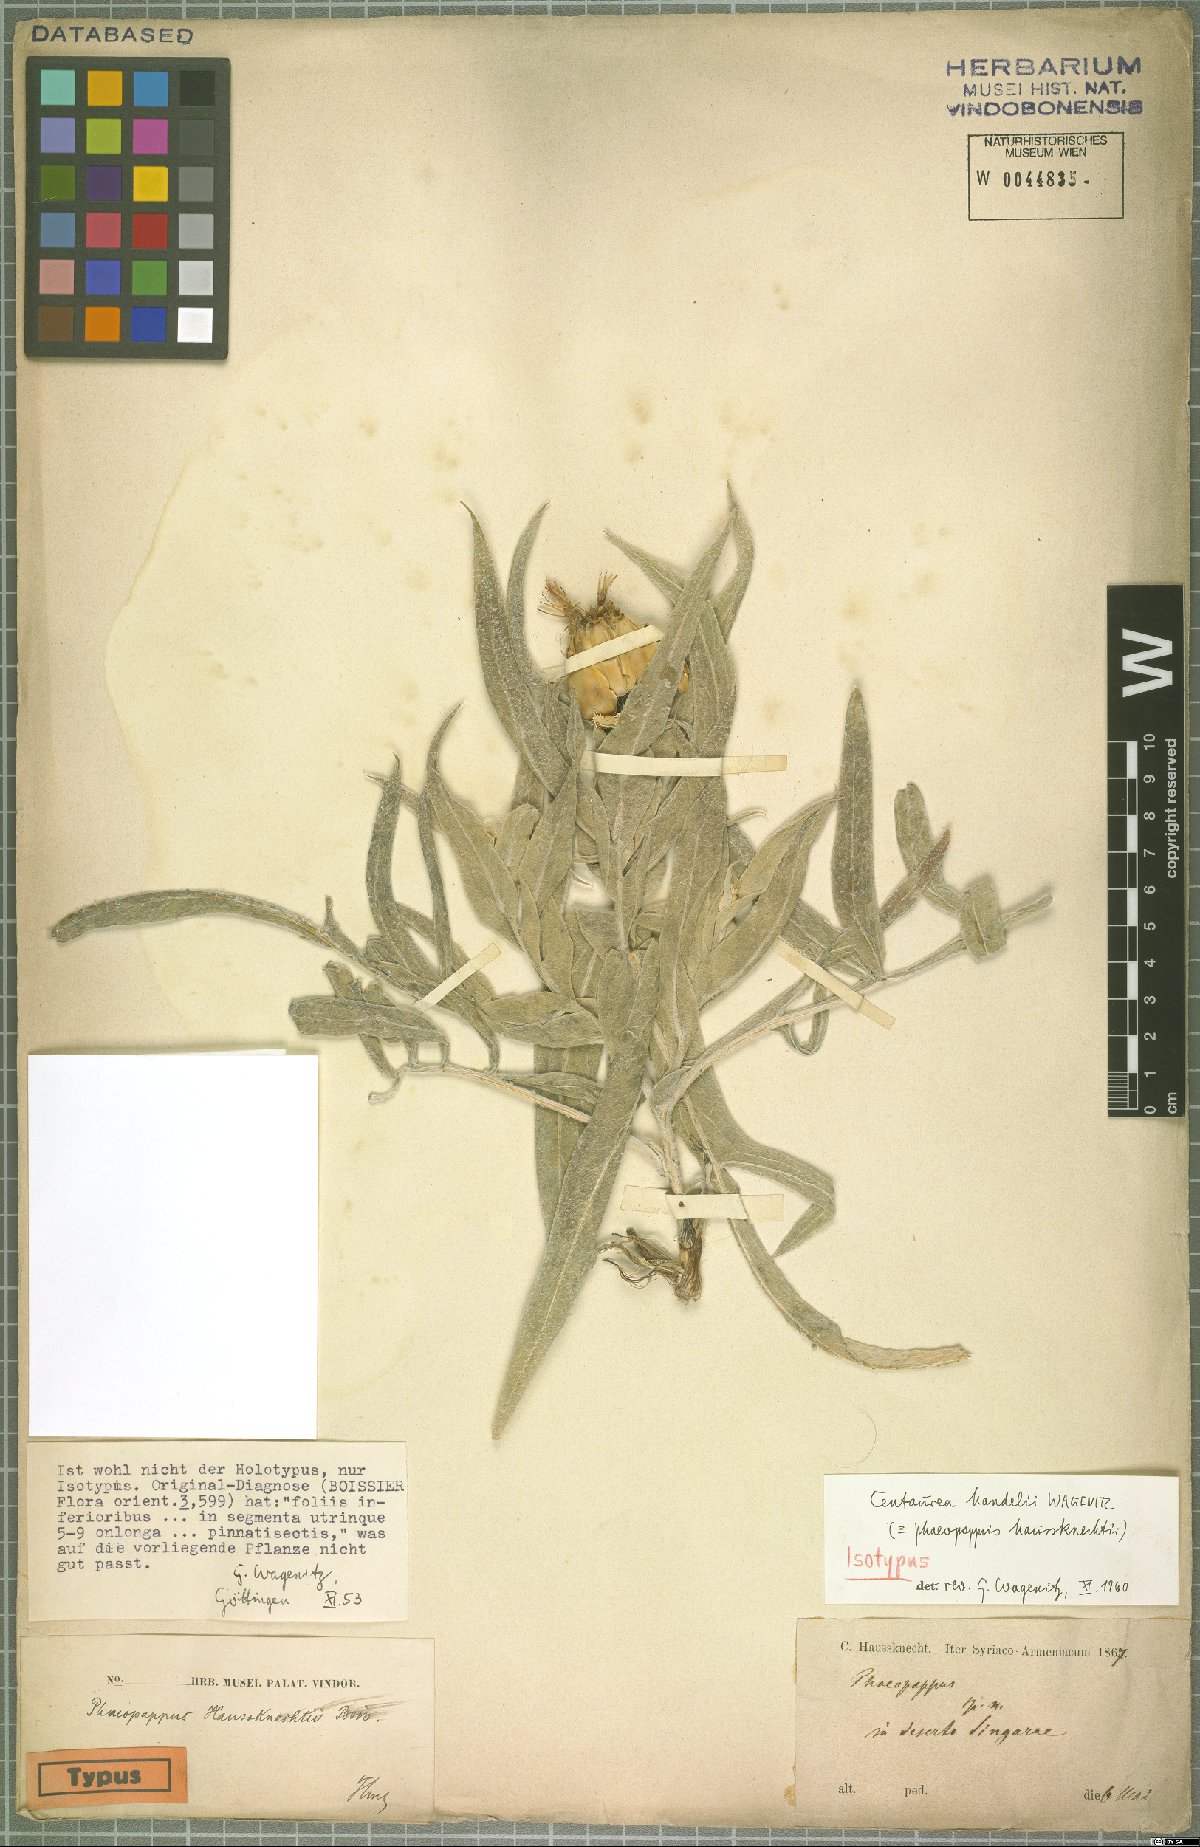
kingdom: Plantae
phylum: Tracheophyta
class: Magnoliopsida
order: Asterales
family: Asteraceae
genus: Centaurea
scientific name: Centaurea handelii
